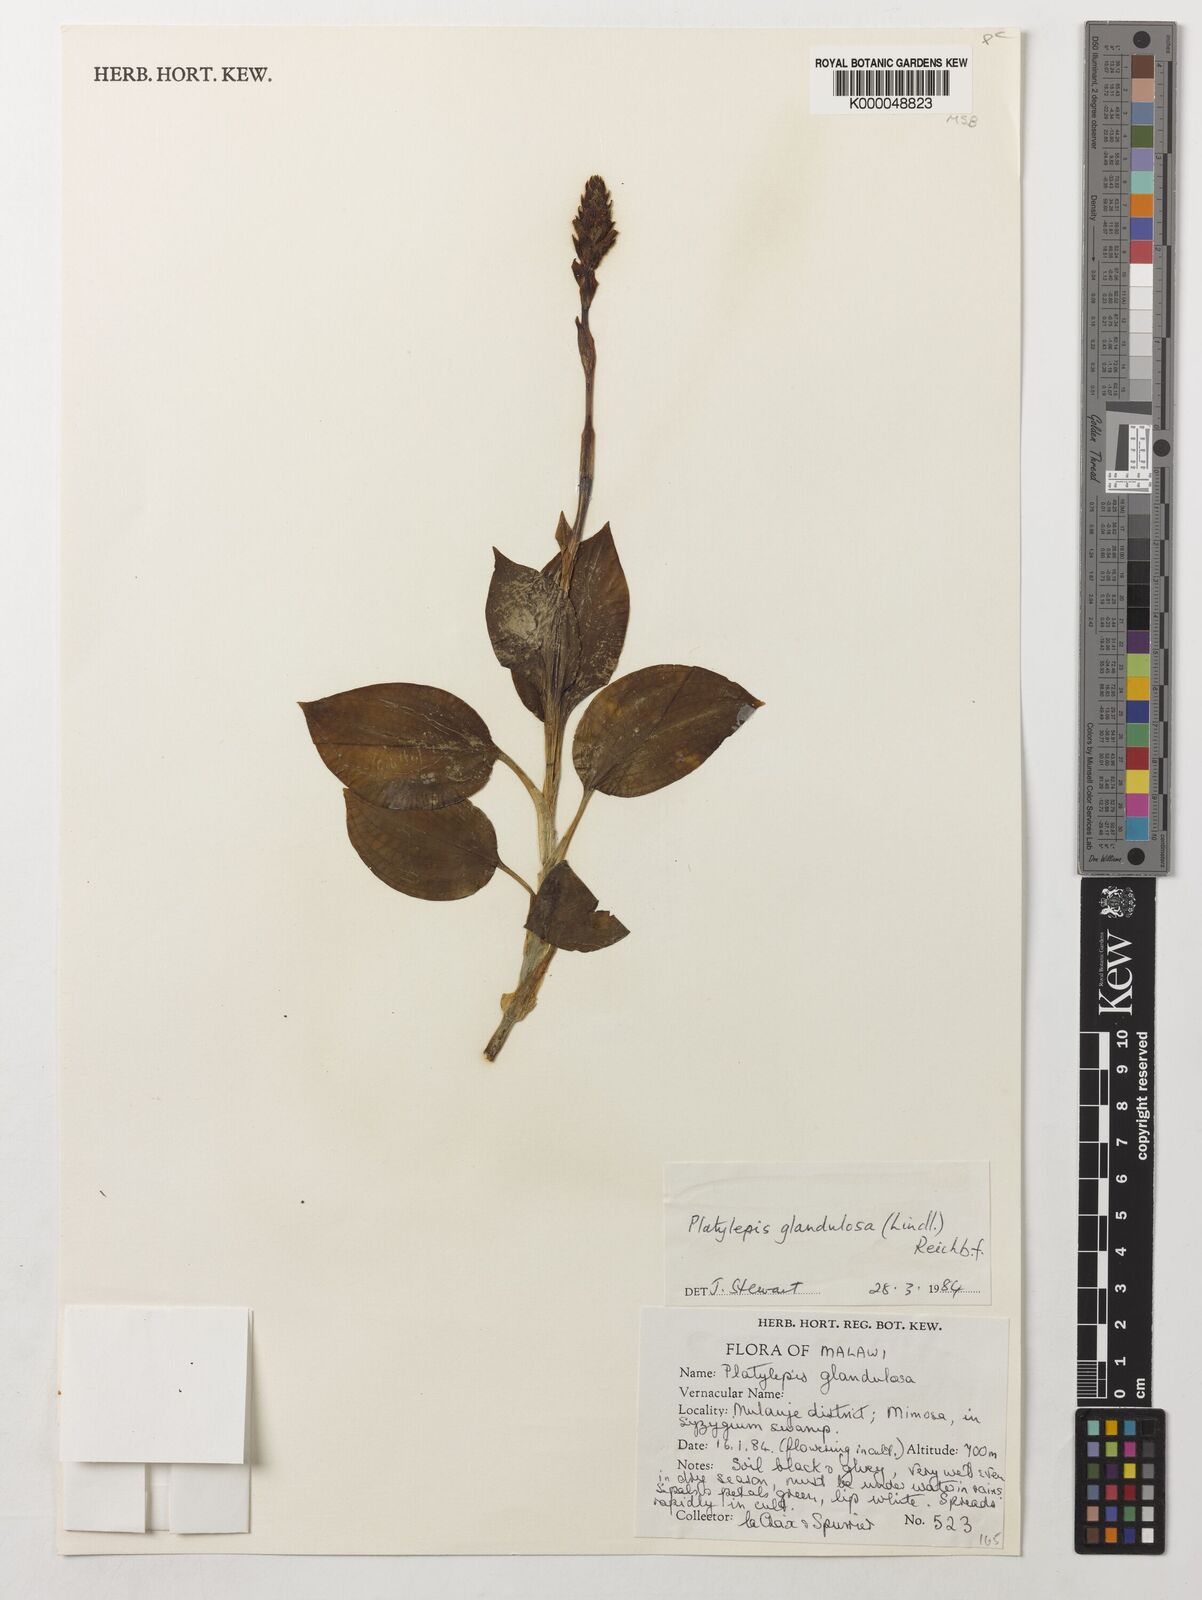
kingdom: Plantae
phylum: Tracheophyta
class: Liliopsida
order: Asparagales
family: Orchidaceae
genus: Platylepis
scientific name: Platylepis glandulosa
